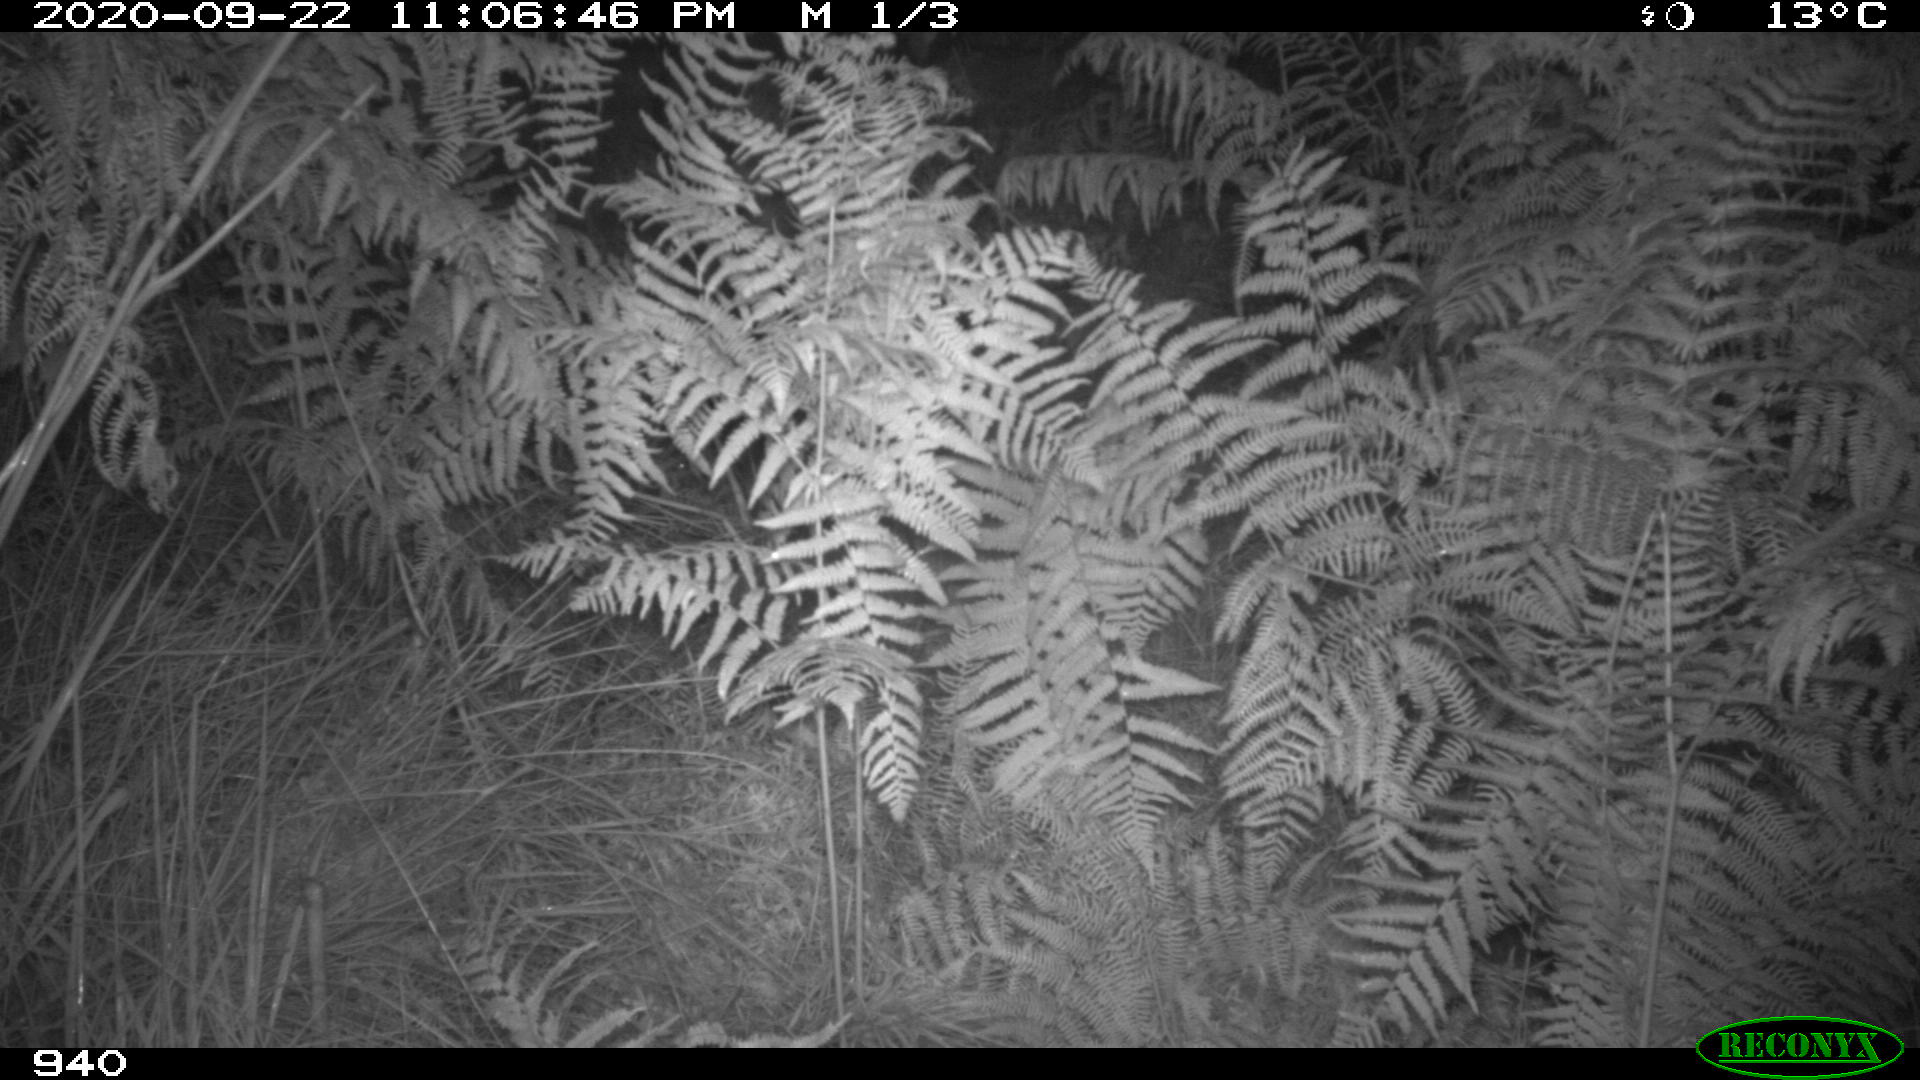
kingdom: Animalia
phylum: Chordata
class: Mammalia
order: Artiodactyla
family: Suidae
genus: Sus
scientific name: Sus scrofa
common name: Wild boar
